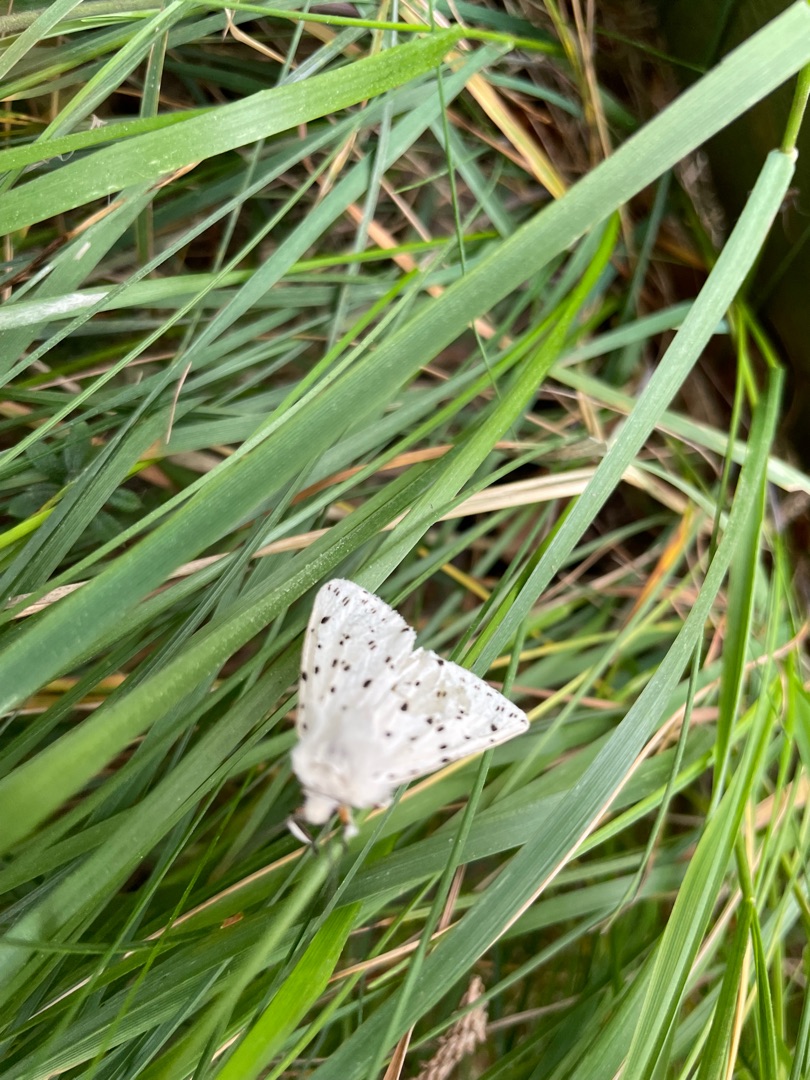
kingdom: Animalia
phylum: Arthropoda
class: Insecta
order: Lepidoptera
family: Erebidae
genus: Spilosoma
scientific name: Spilosoma lubricipeda
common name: Almindelig tigerspinder
